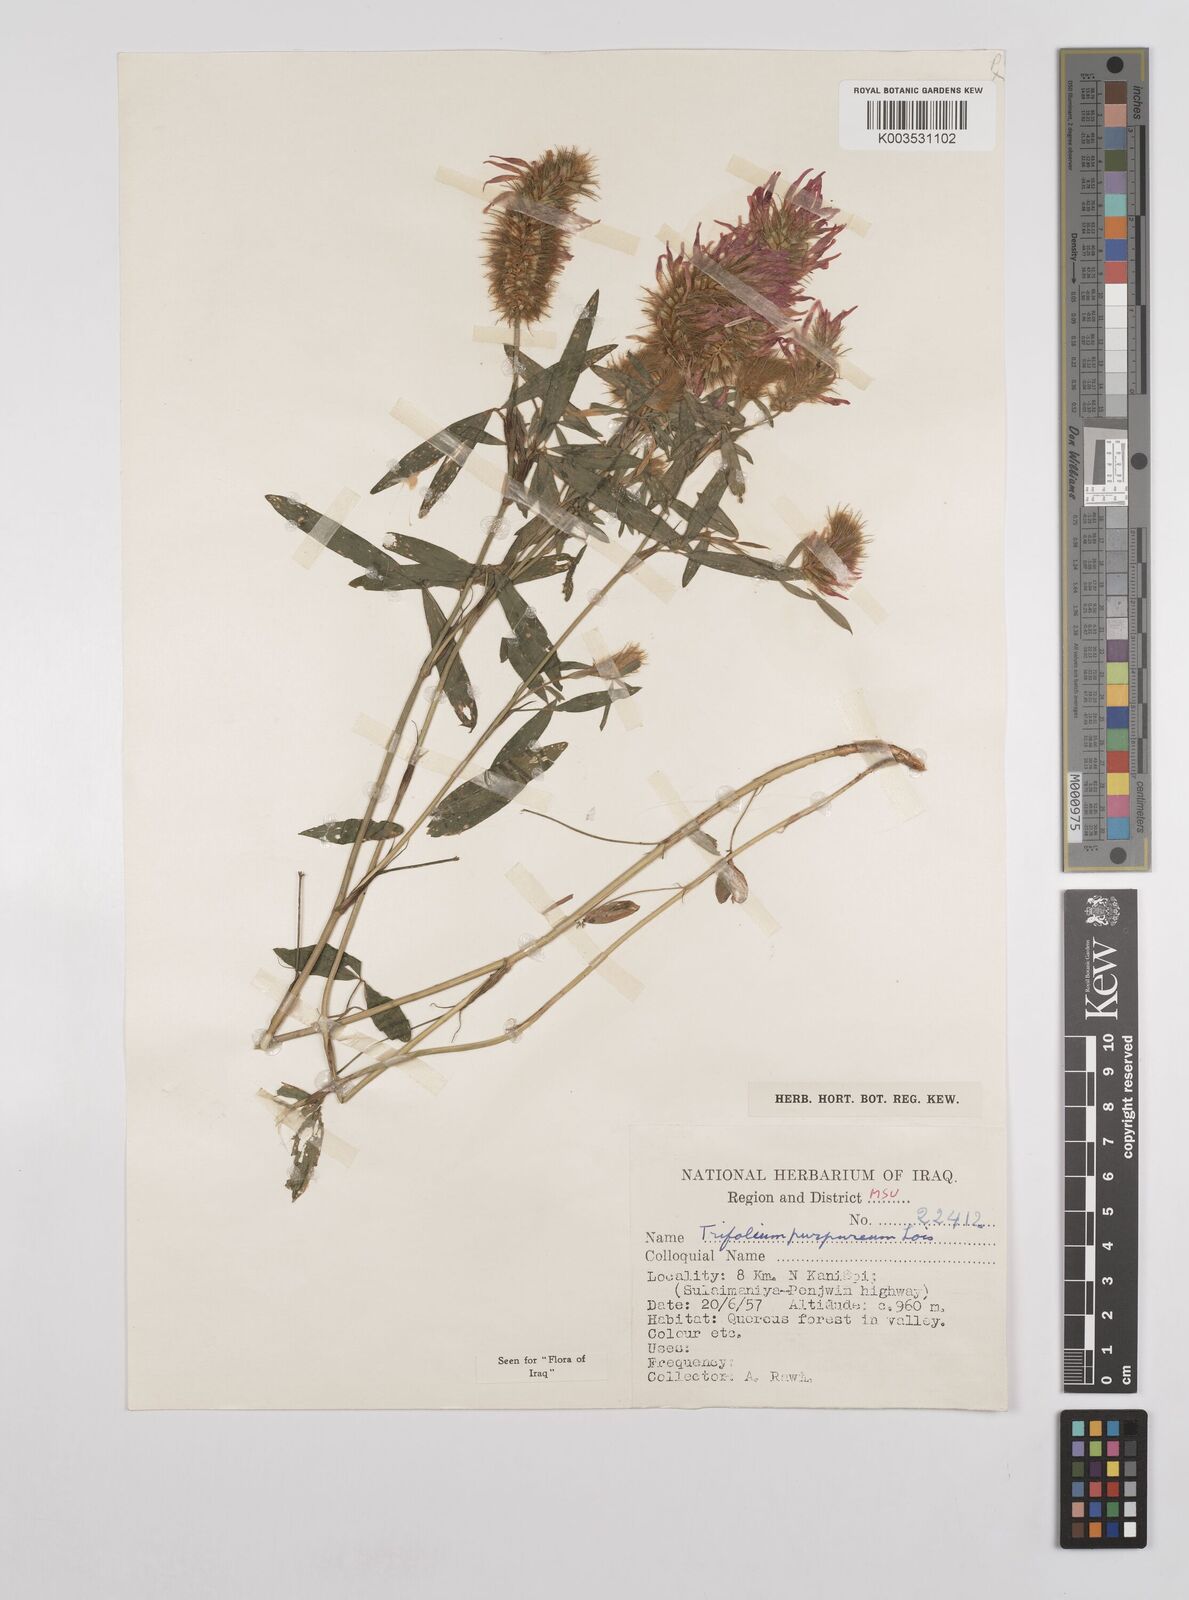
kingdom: Plantae
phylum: Tracheophyta
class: Magnoliopsida
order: Fabales
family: Fabaceae
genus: Trifolium
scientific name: Trifolium purpureum
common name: Purple clover
